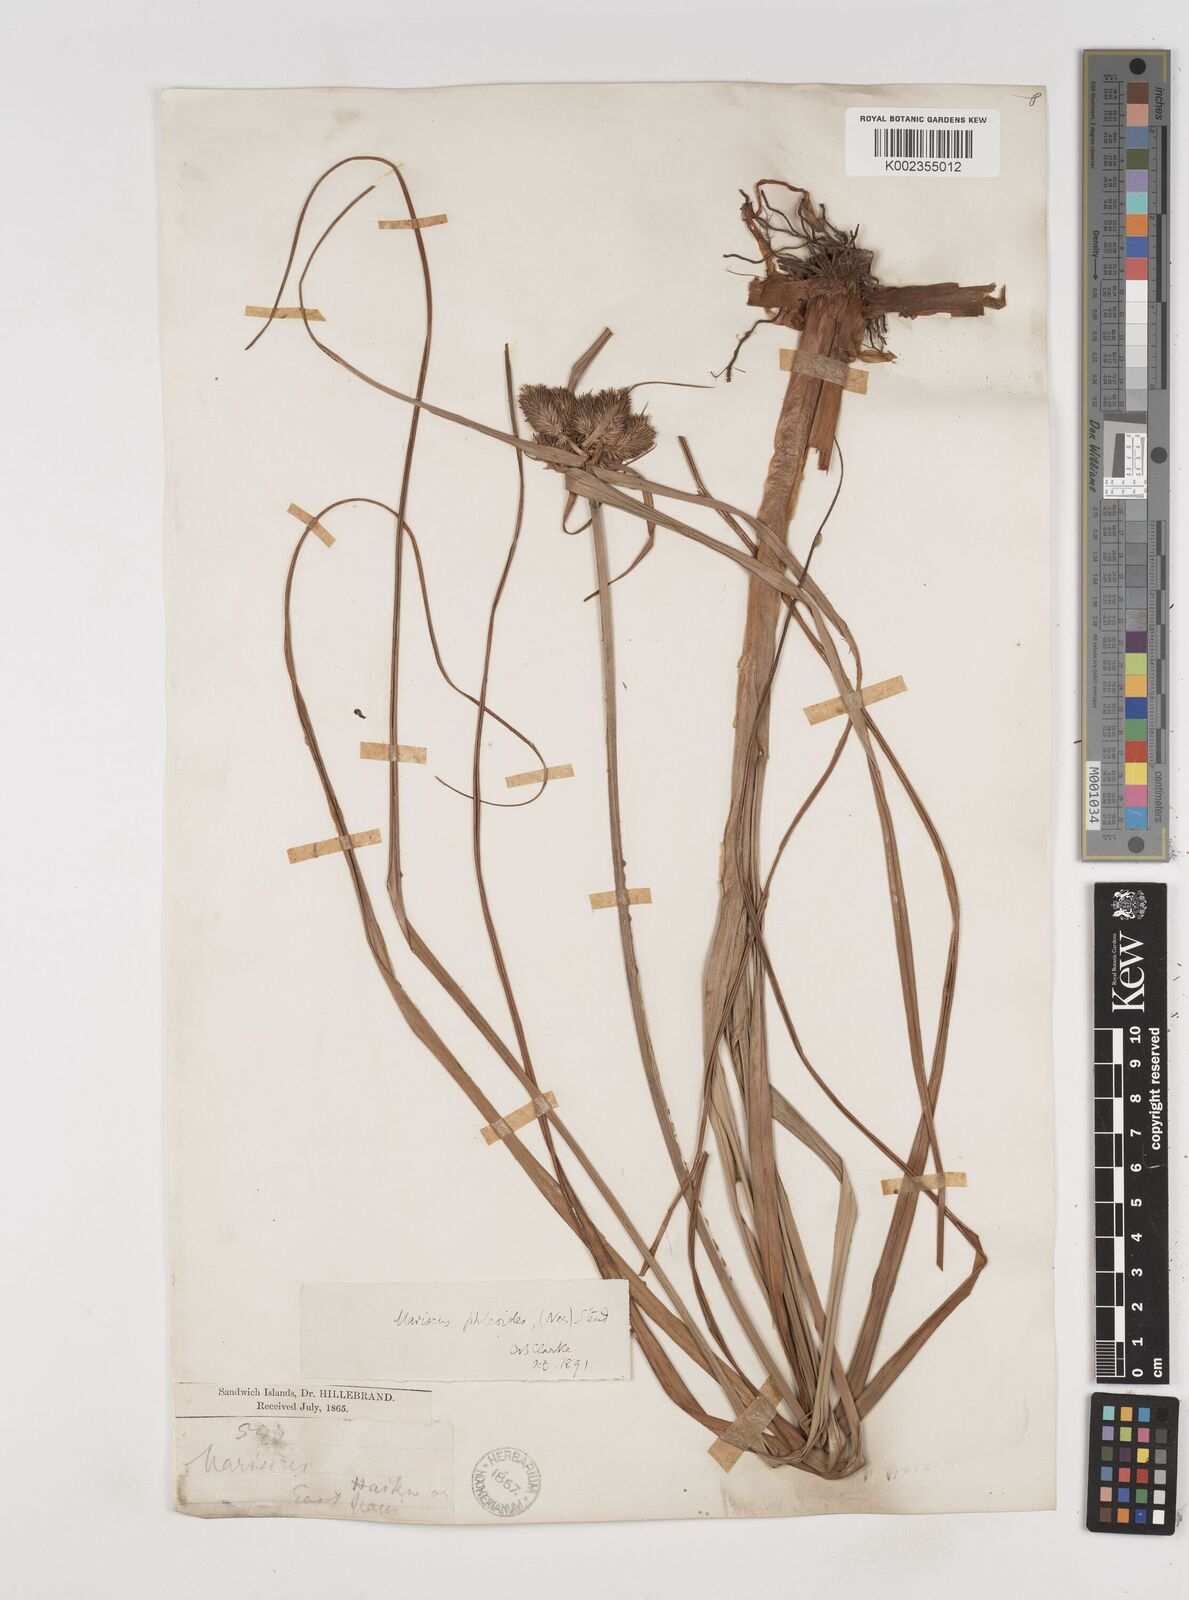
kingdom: Plantae
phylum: Tracheophyta
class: Liliopsida
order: Poales
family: Cyperaceae
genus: Cyperus
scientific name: Cyperus phleoides
